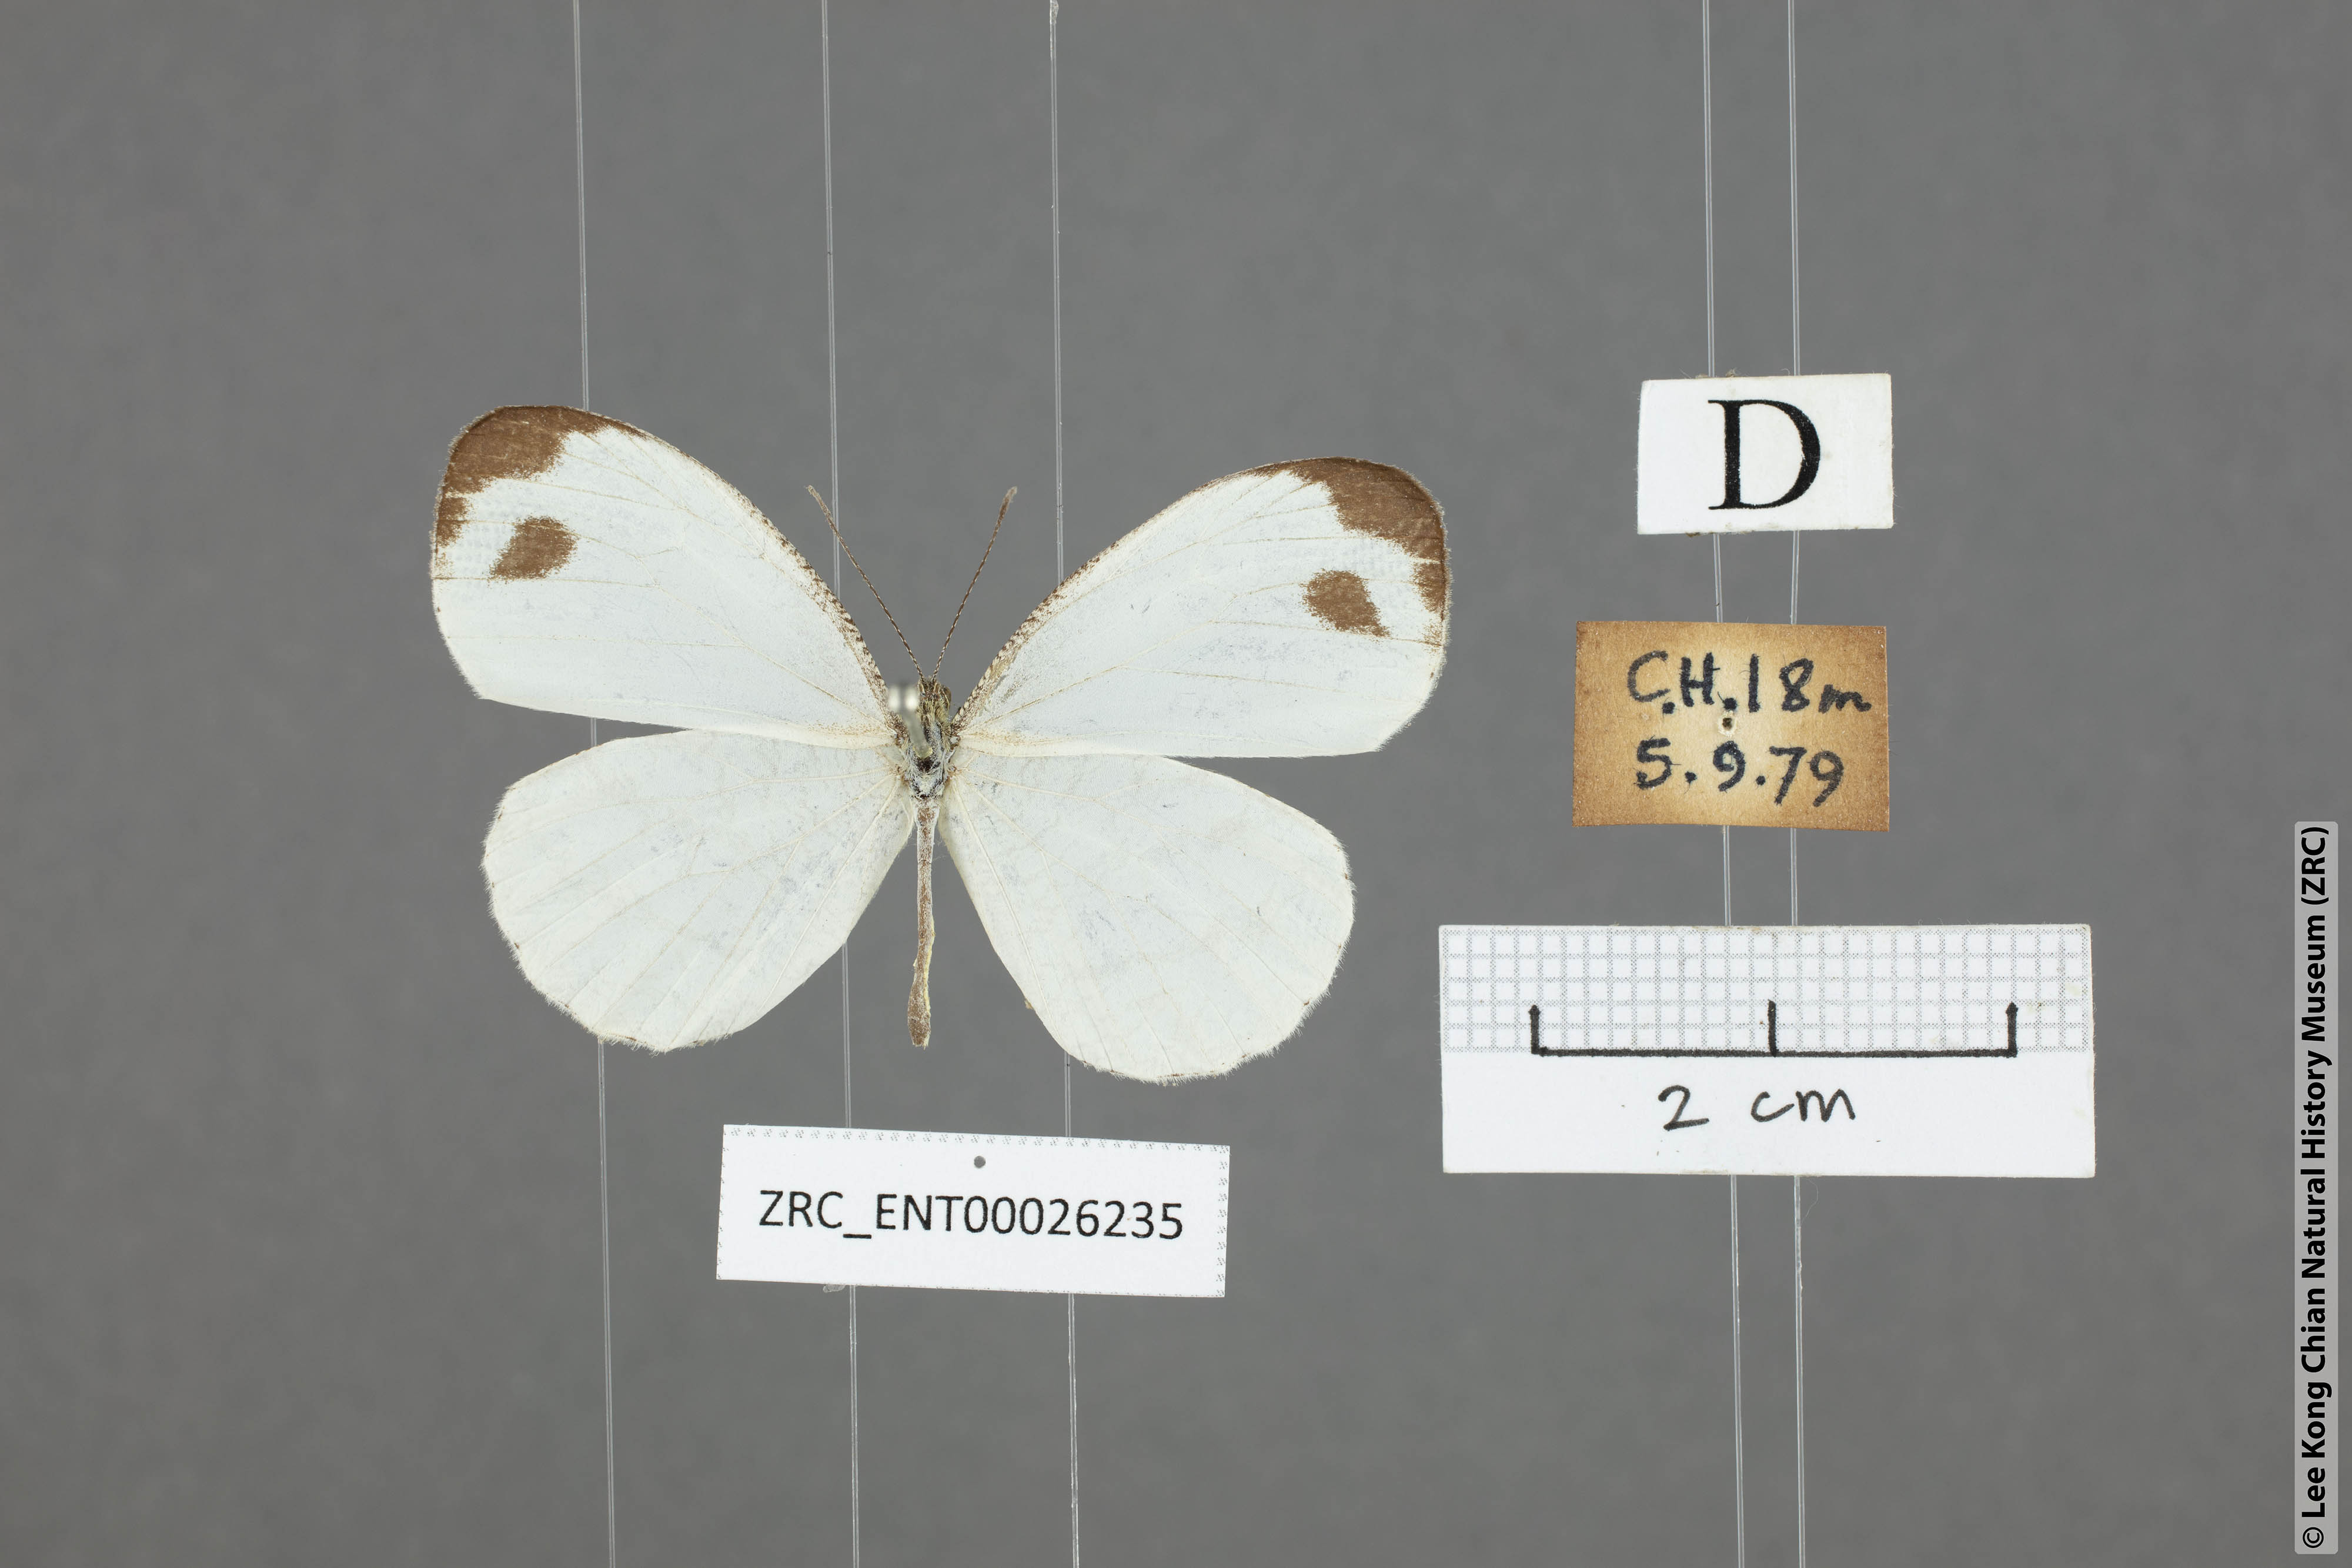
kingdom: Animalia
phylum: Arthropoda
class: Insecta
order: Lepidoptera
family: Pieridae
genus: Leptosia
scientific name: Leptosia nina
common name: Psyche
